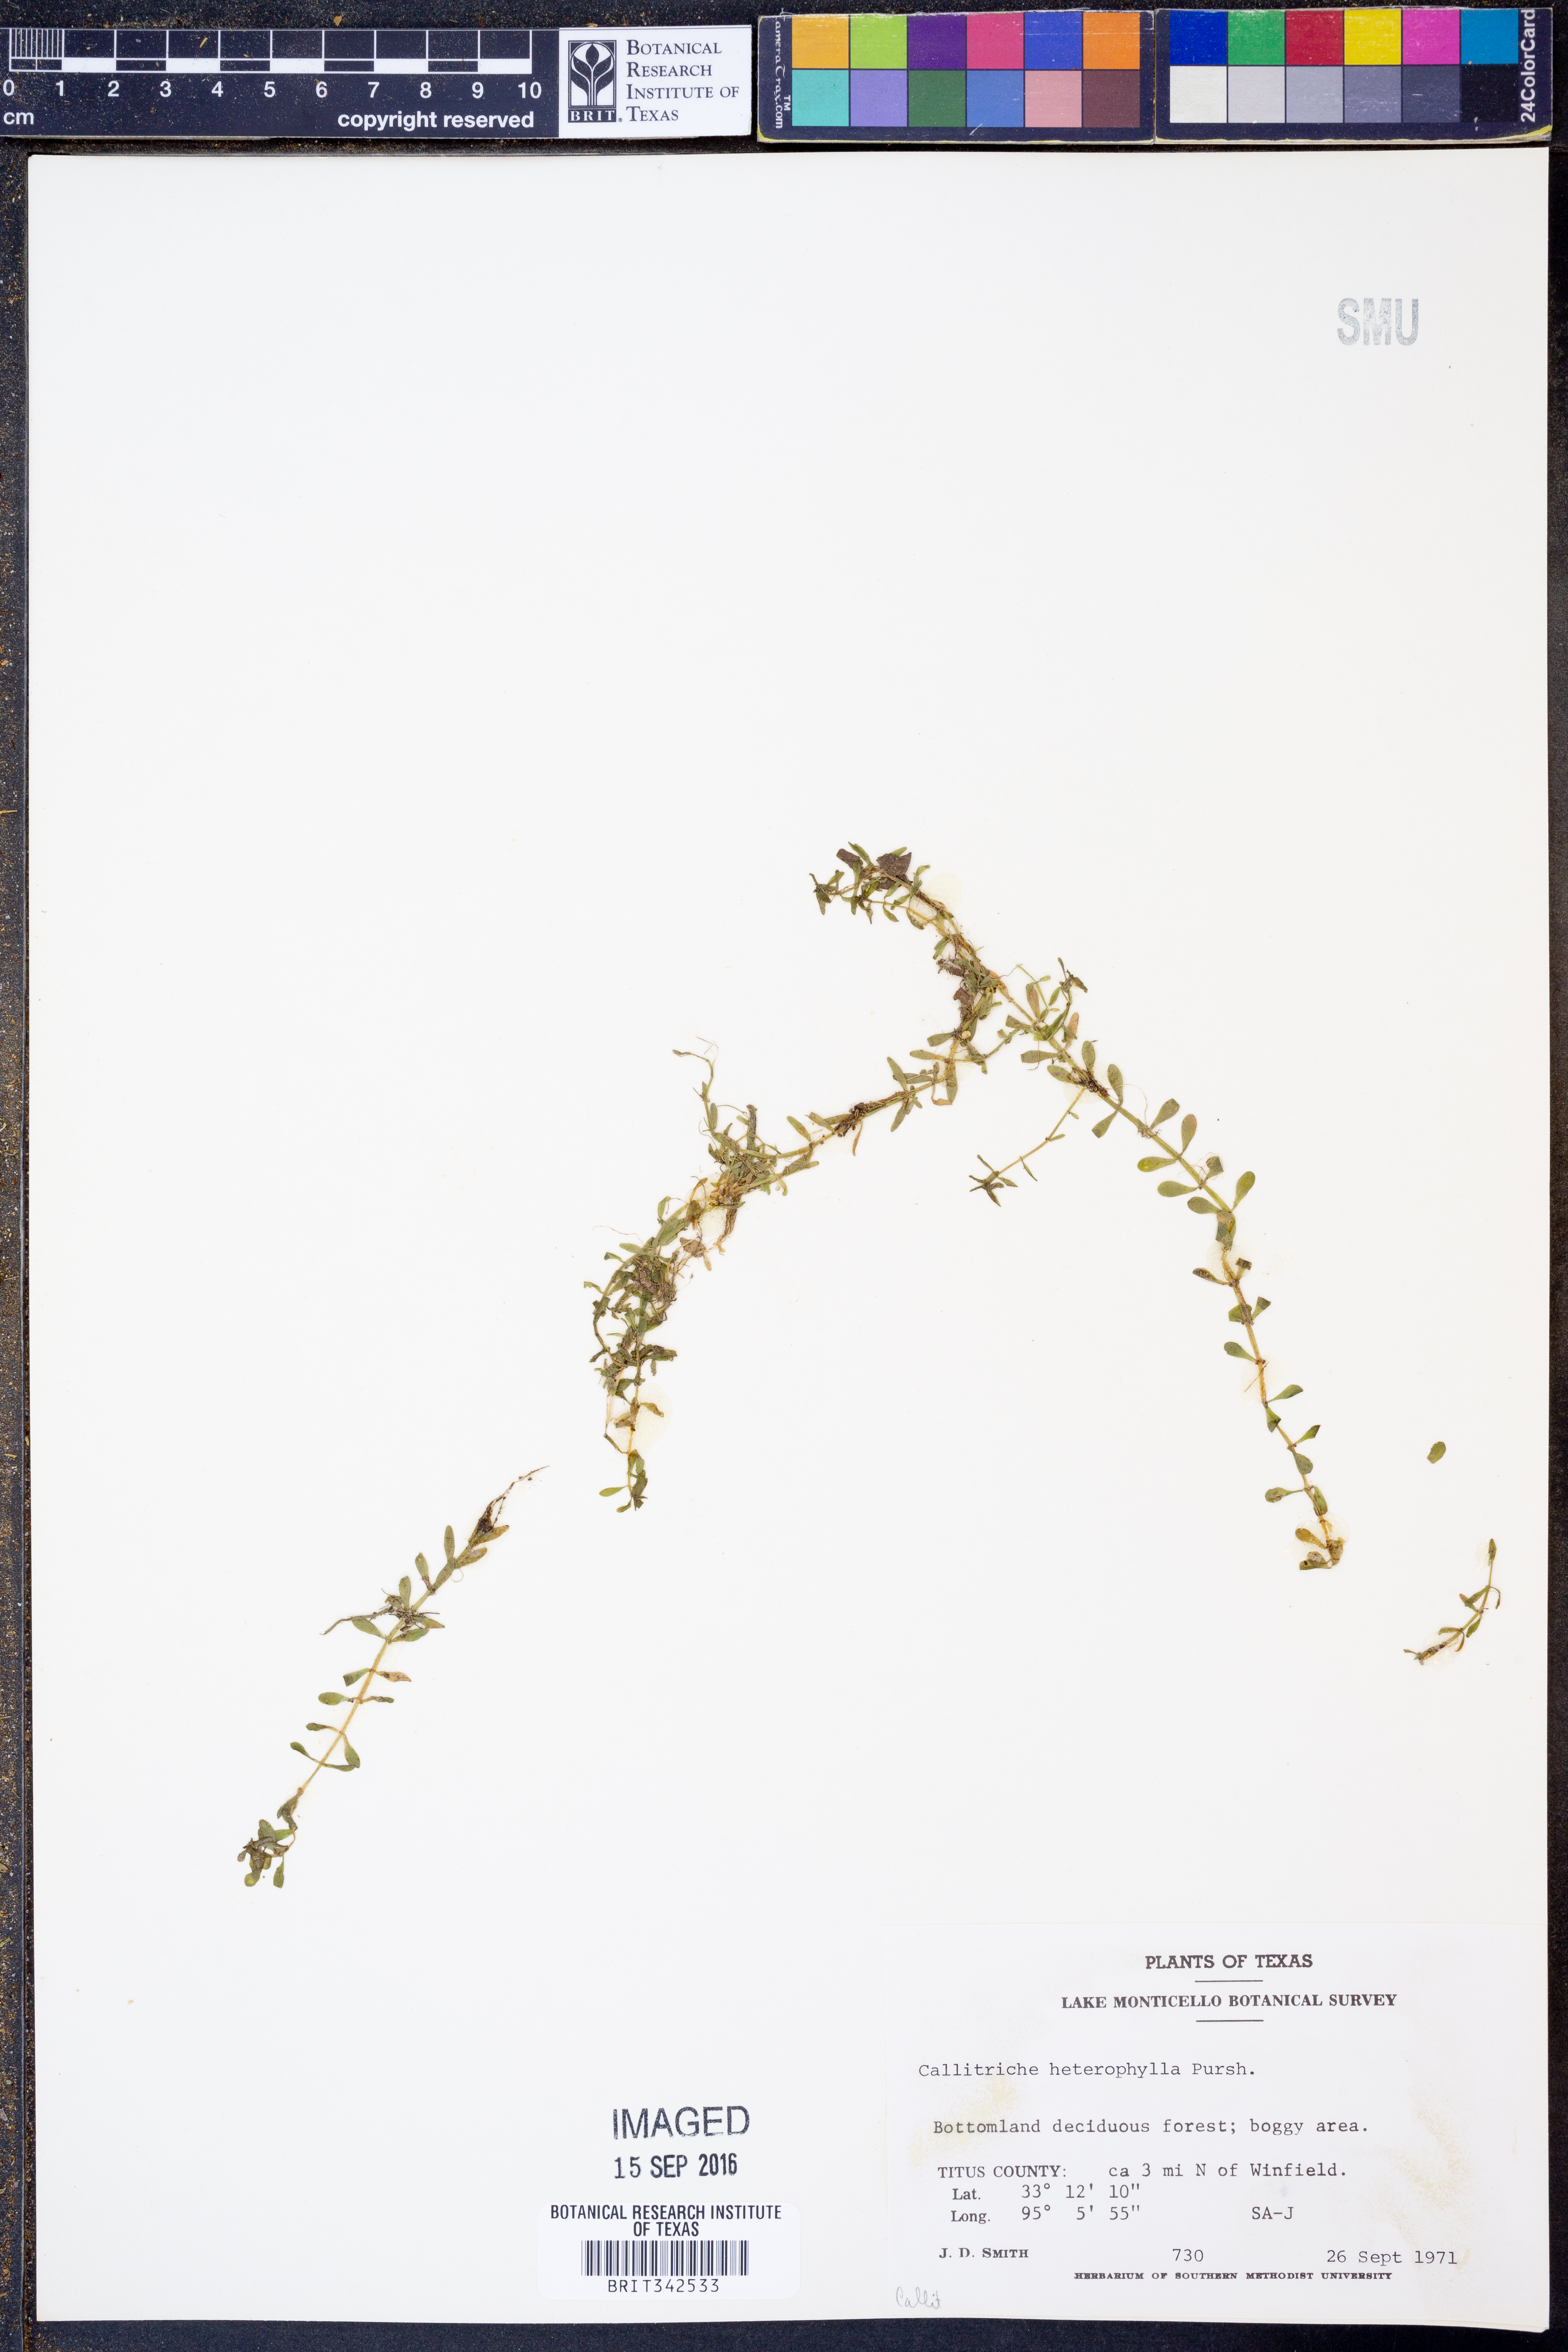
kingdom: Plantae
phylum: Tracheophyta
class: Magnoliopsida
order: Lamiales
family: Plantaginaceae
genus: Callitriche
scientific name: Callitriche heterophylla
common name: Two-headed water-starwort
